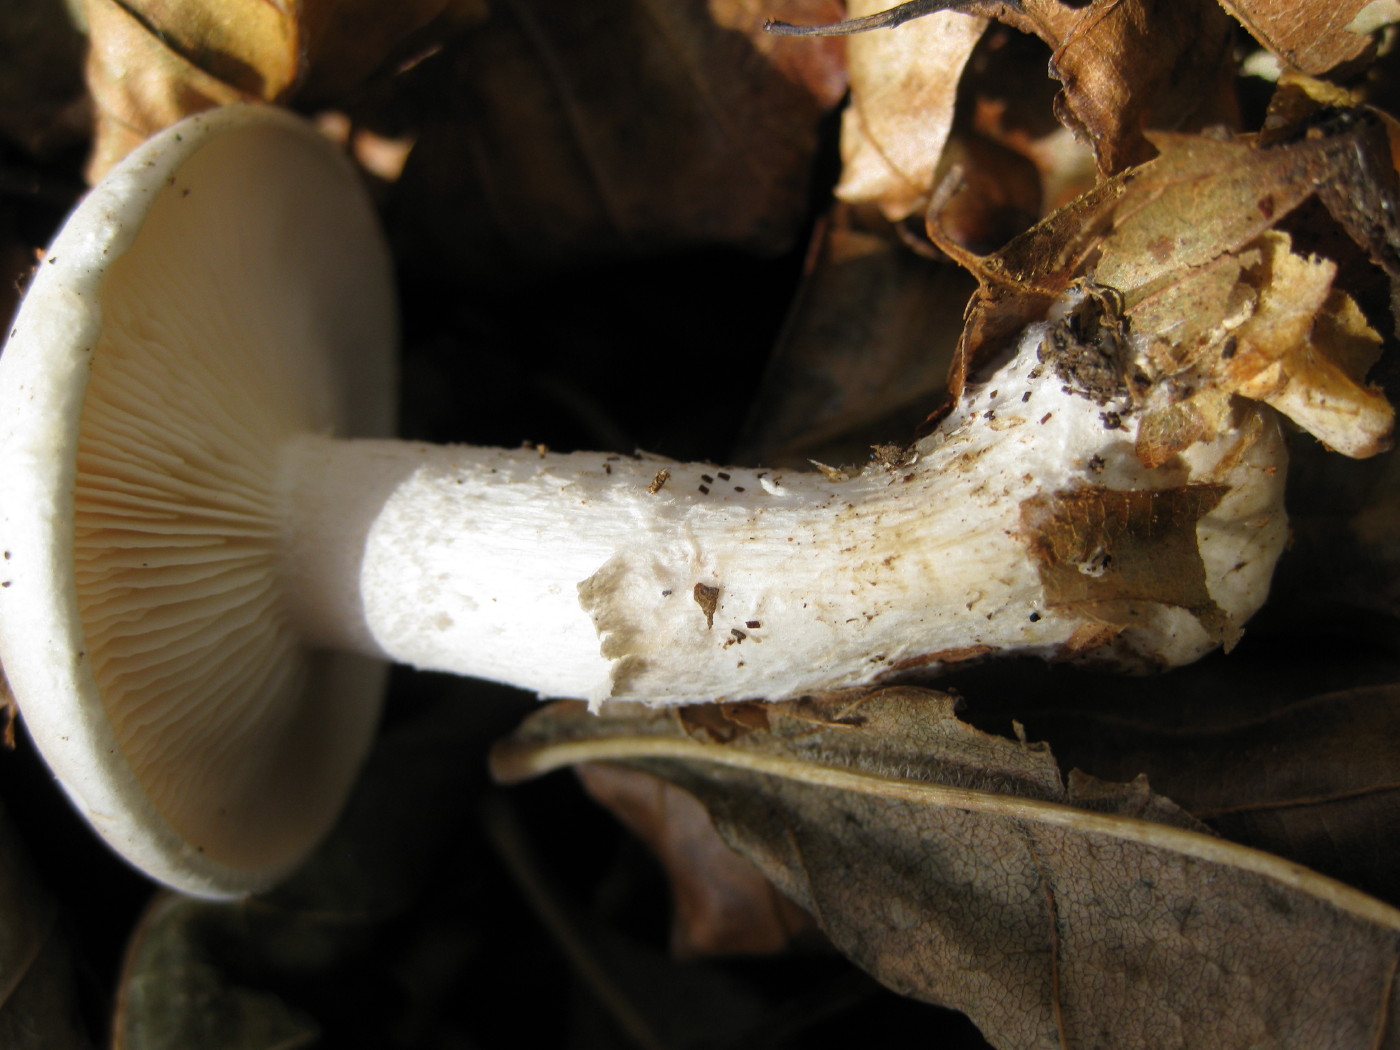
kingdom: Fungi
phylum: Basidiomycota
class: Agaricomycetes
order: Agaricales
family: Tricholomataceae
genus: Clitocybe
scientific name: Clitocybe nebularis
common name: tåge-tragthat
